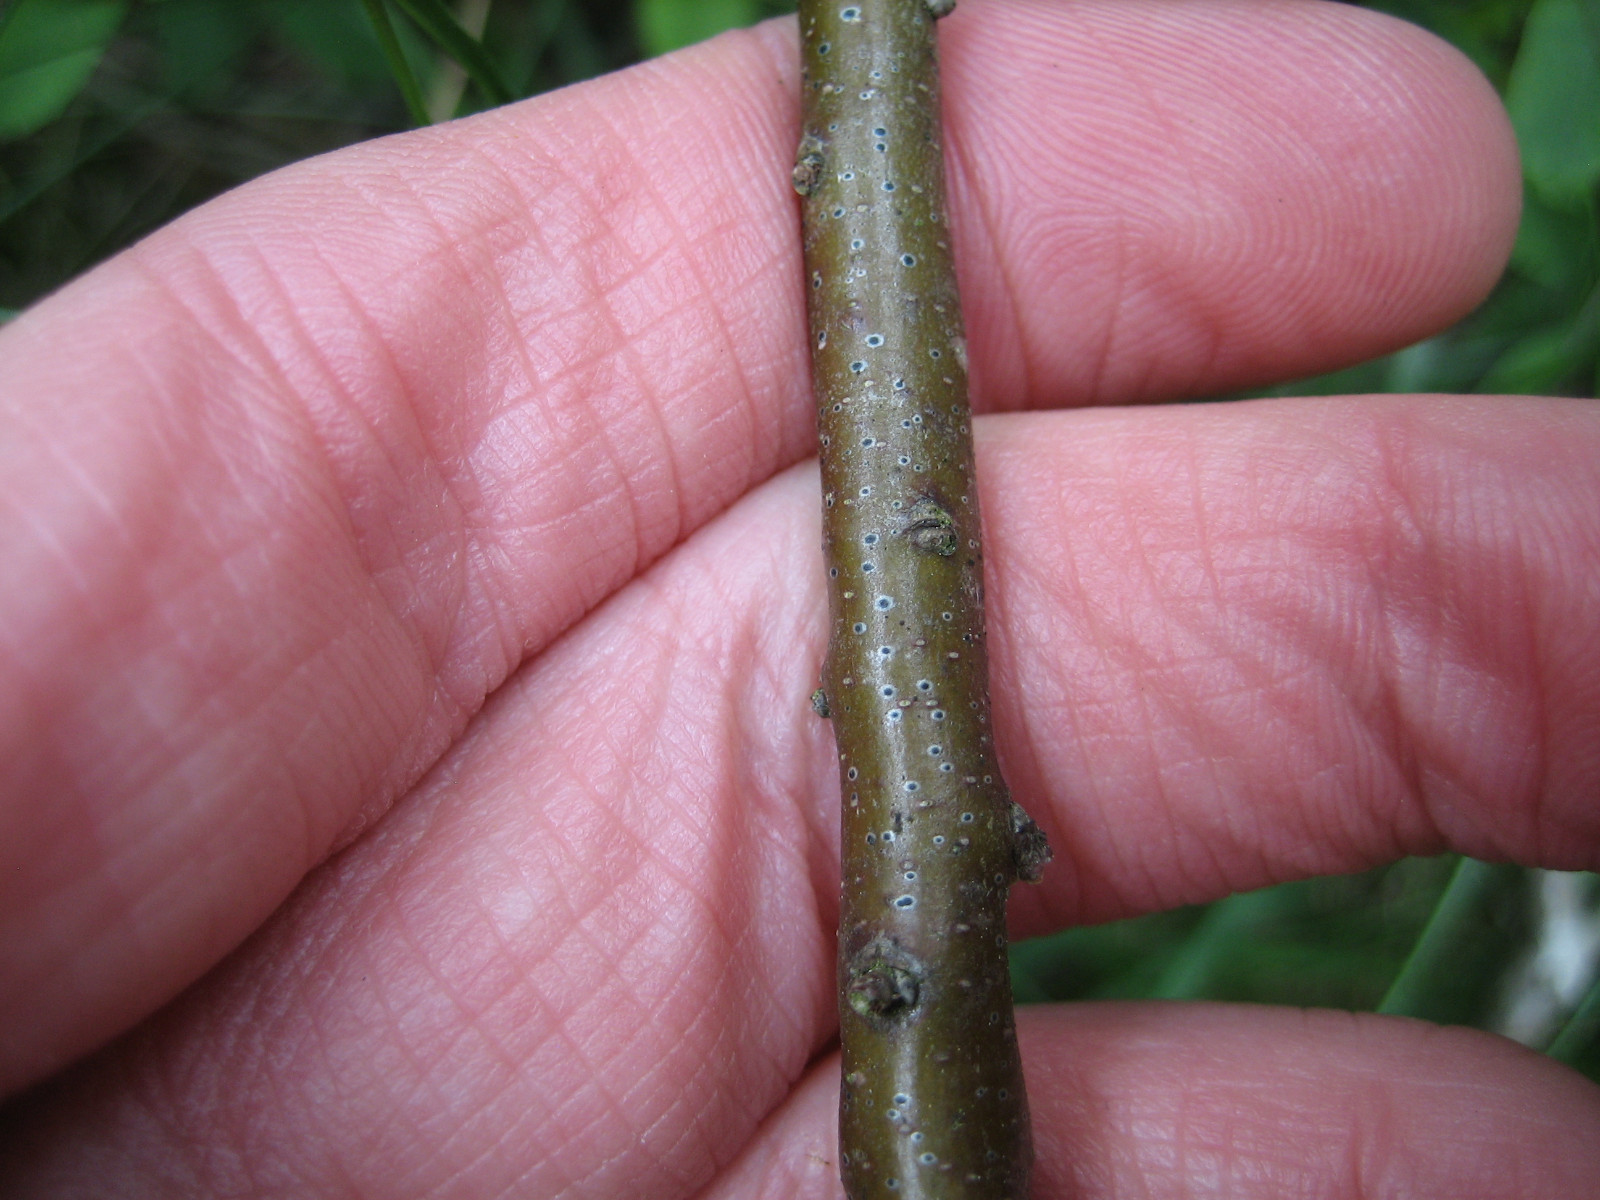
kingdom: Fungi
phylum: Ascomycota
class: Dothideomycetes
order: Dothideales
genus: Mycoglaena
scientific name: Mycoglaena myricae
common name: liden porsprik
